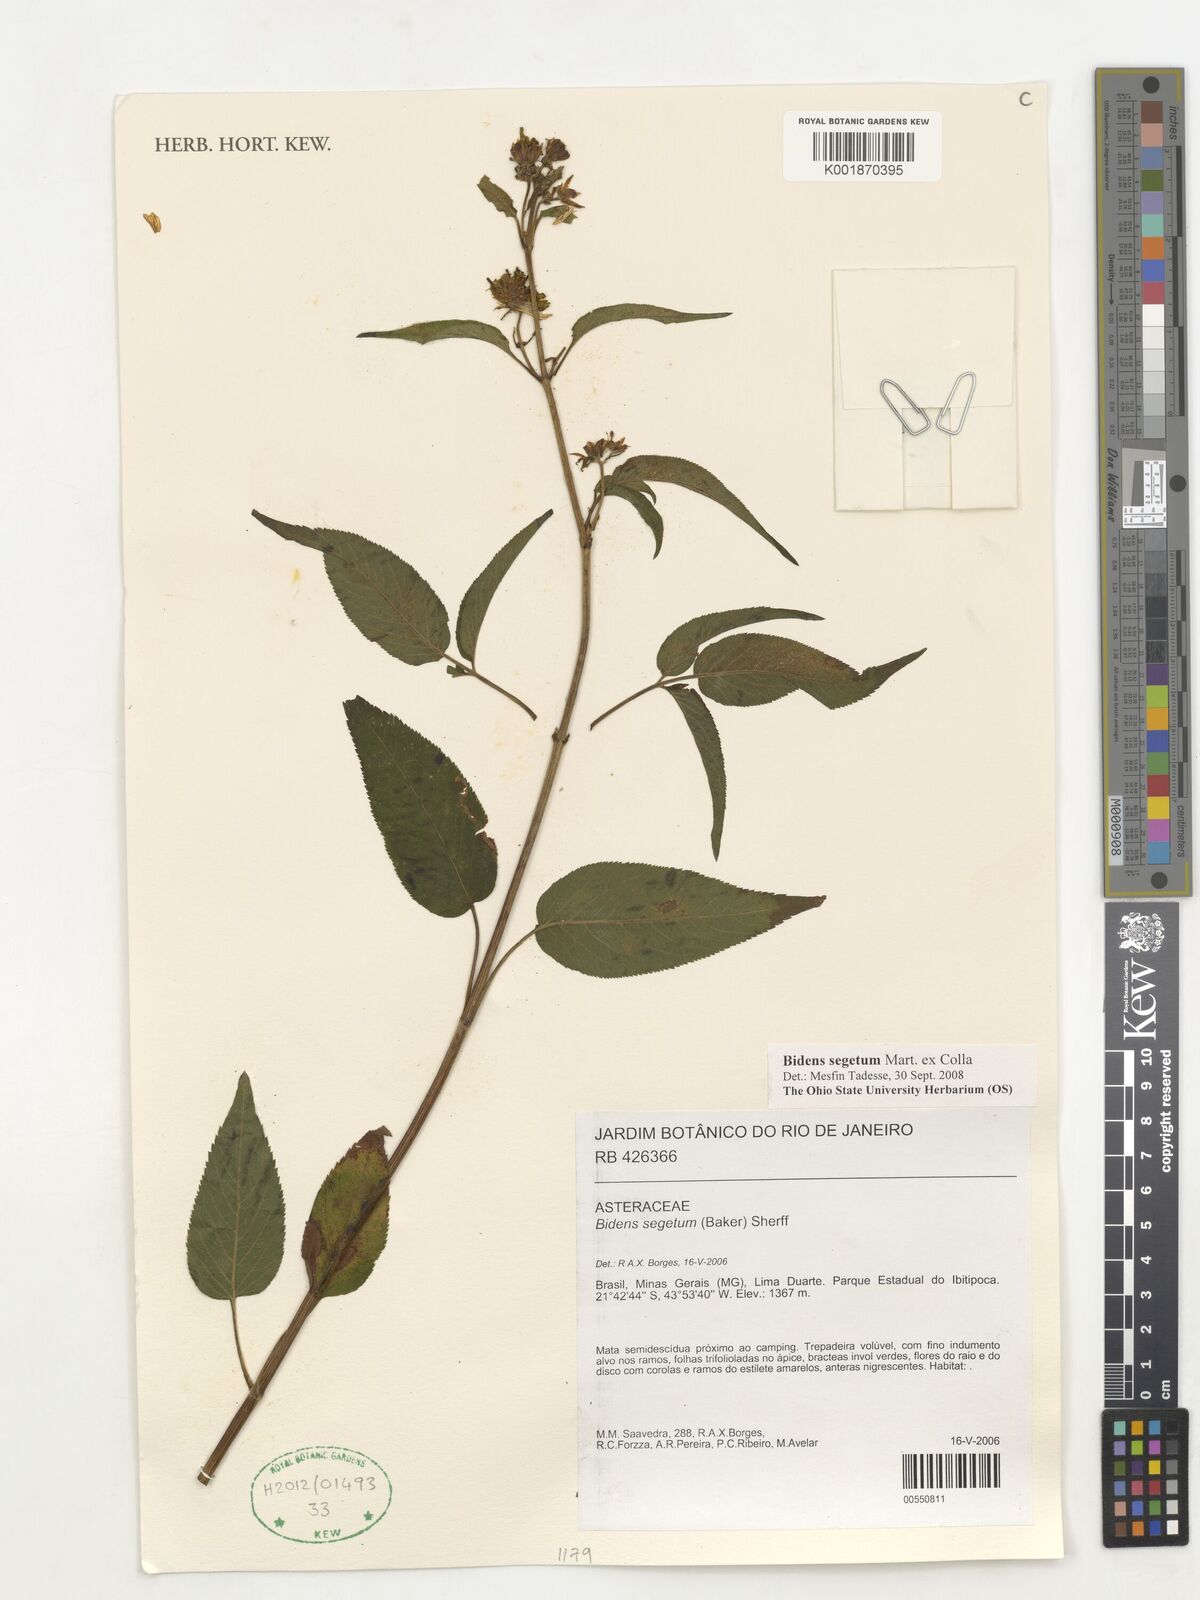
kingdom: Plantae
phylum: Tracheophyta
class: Magnoliopsida
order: Asterales
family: Asteraceae
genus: Bidens
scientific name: Bidens segetum
